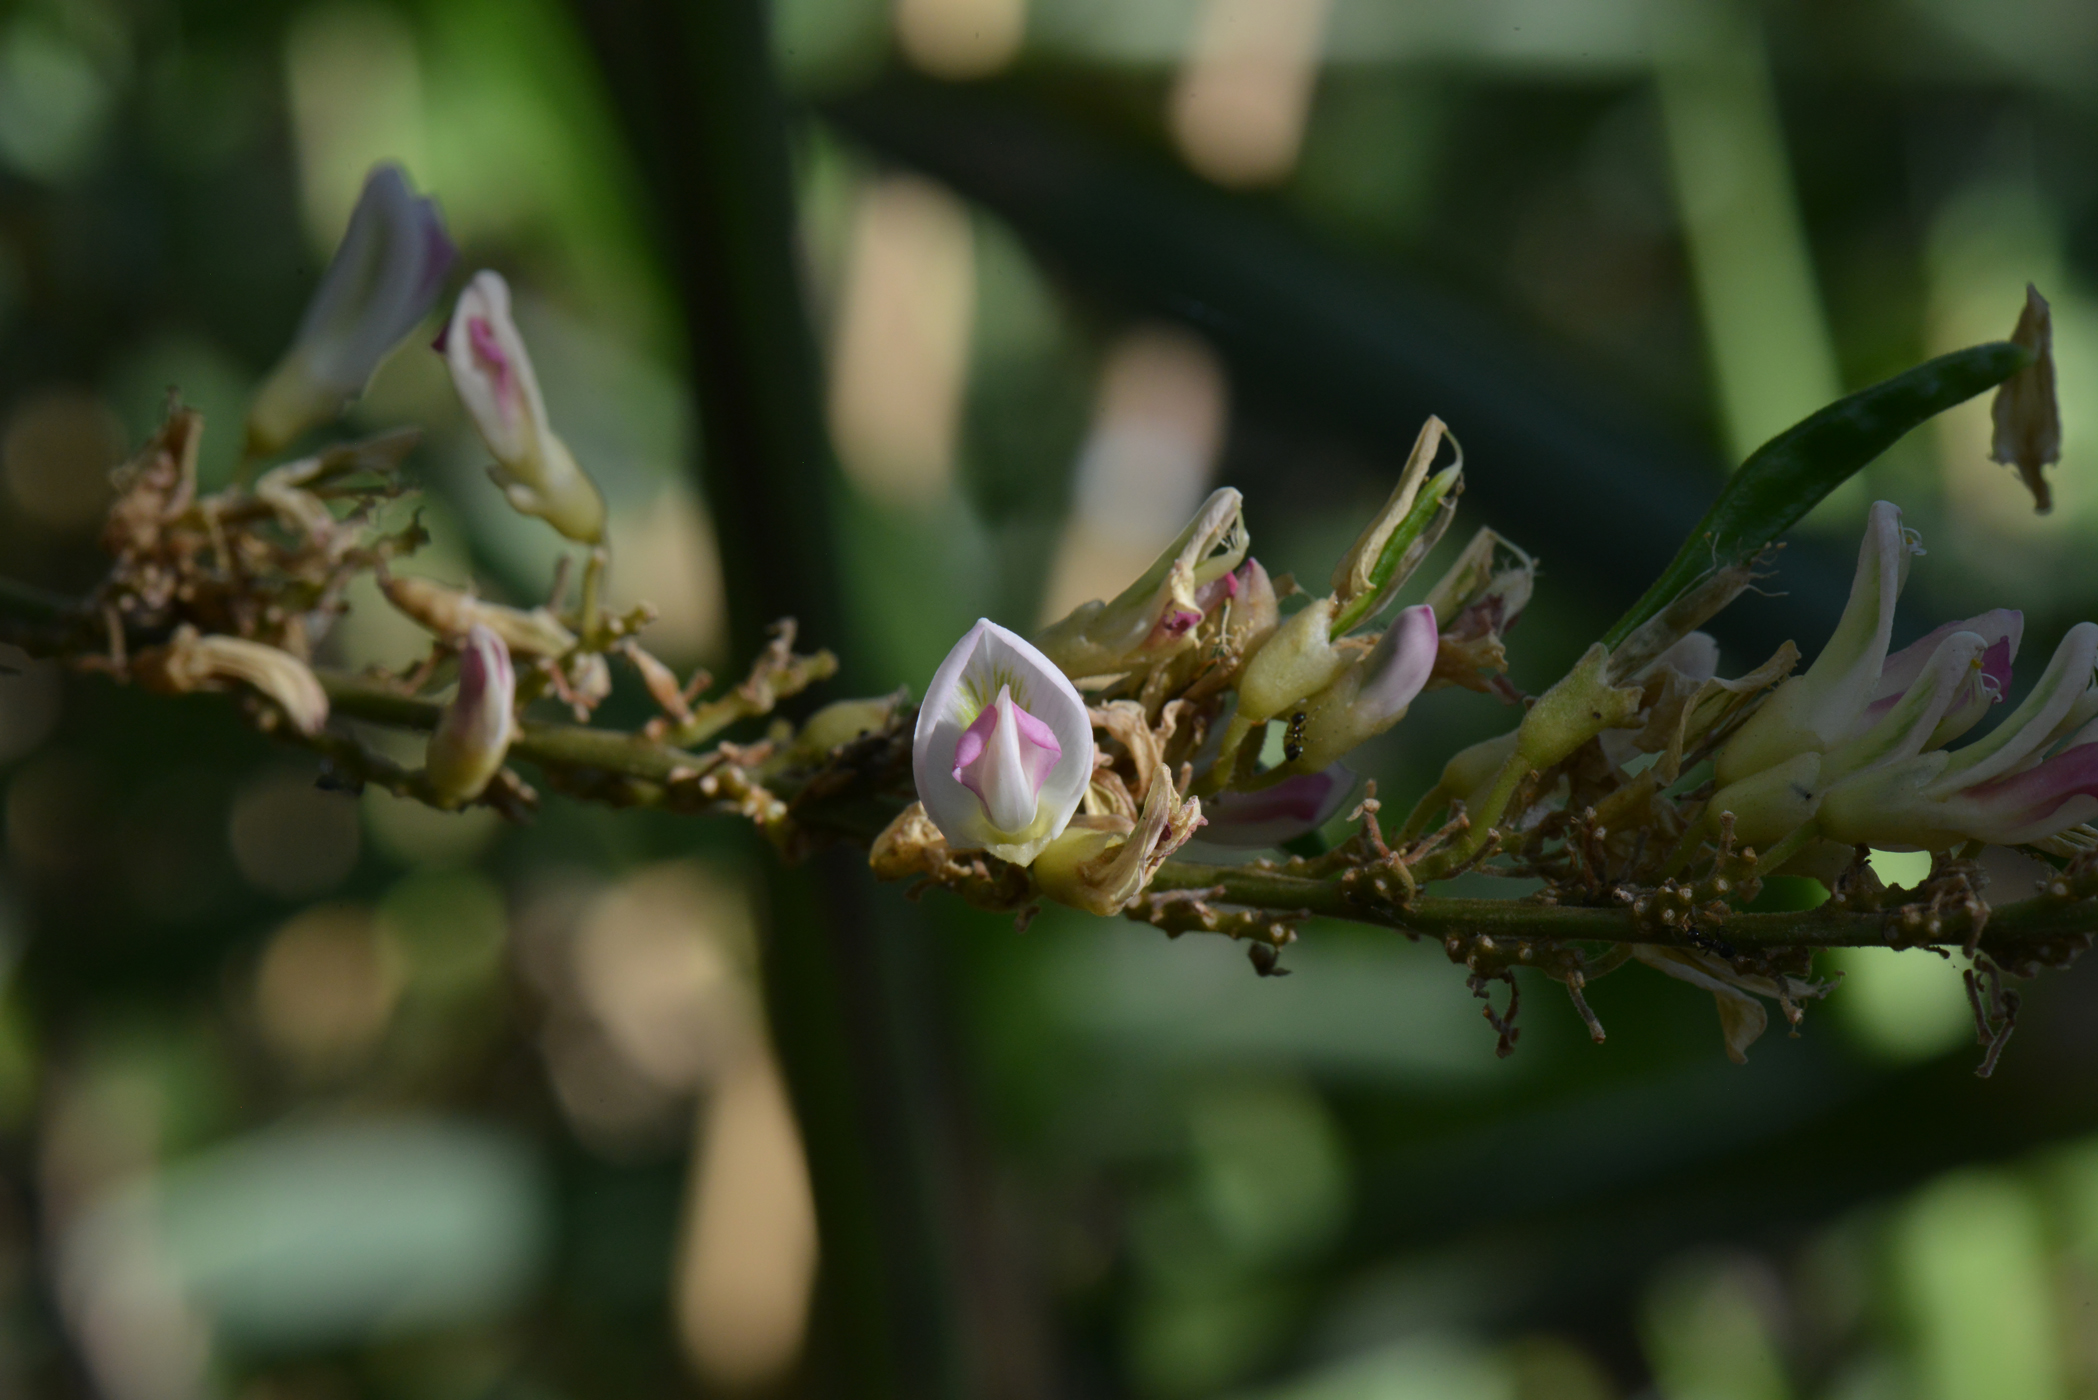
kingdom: Plantae
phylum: Tracheophyta
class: Magnoliopsida
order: Fabales
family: Fabaceae
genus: Haymondia
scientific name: Haymondia wallichii
